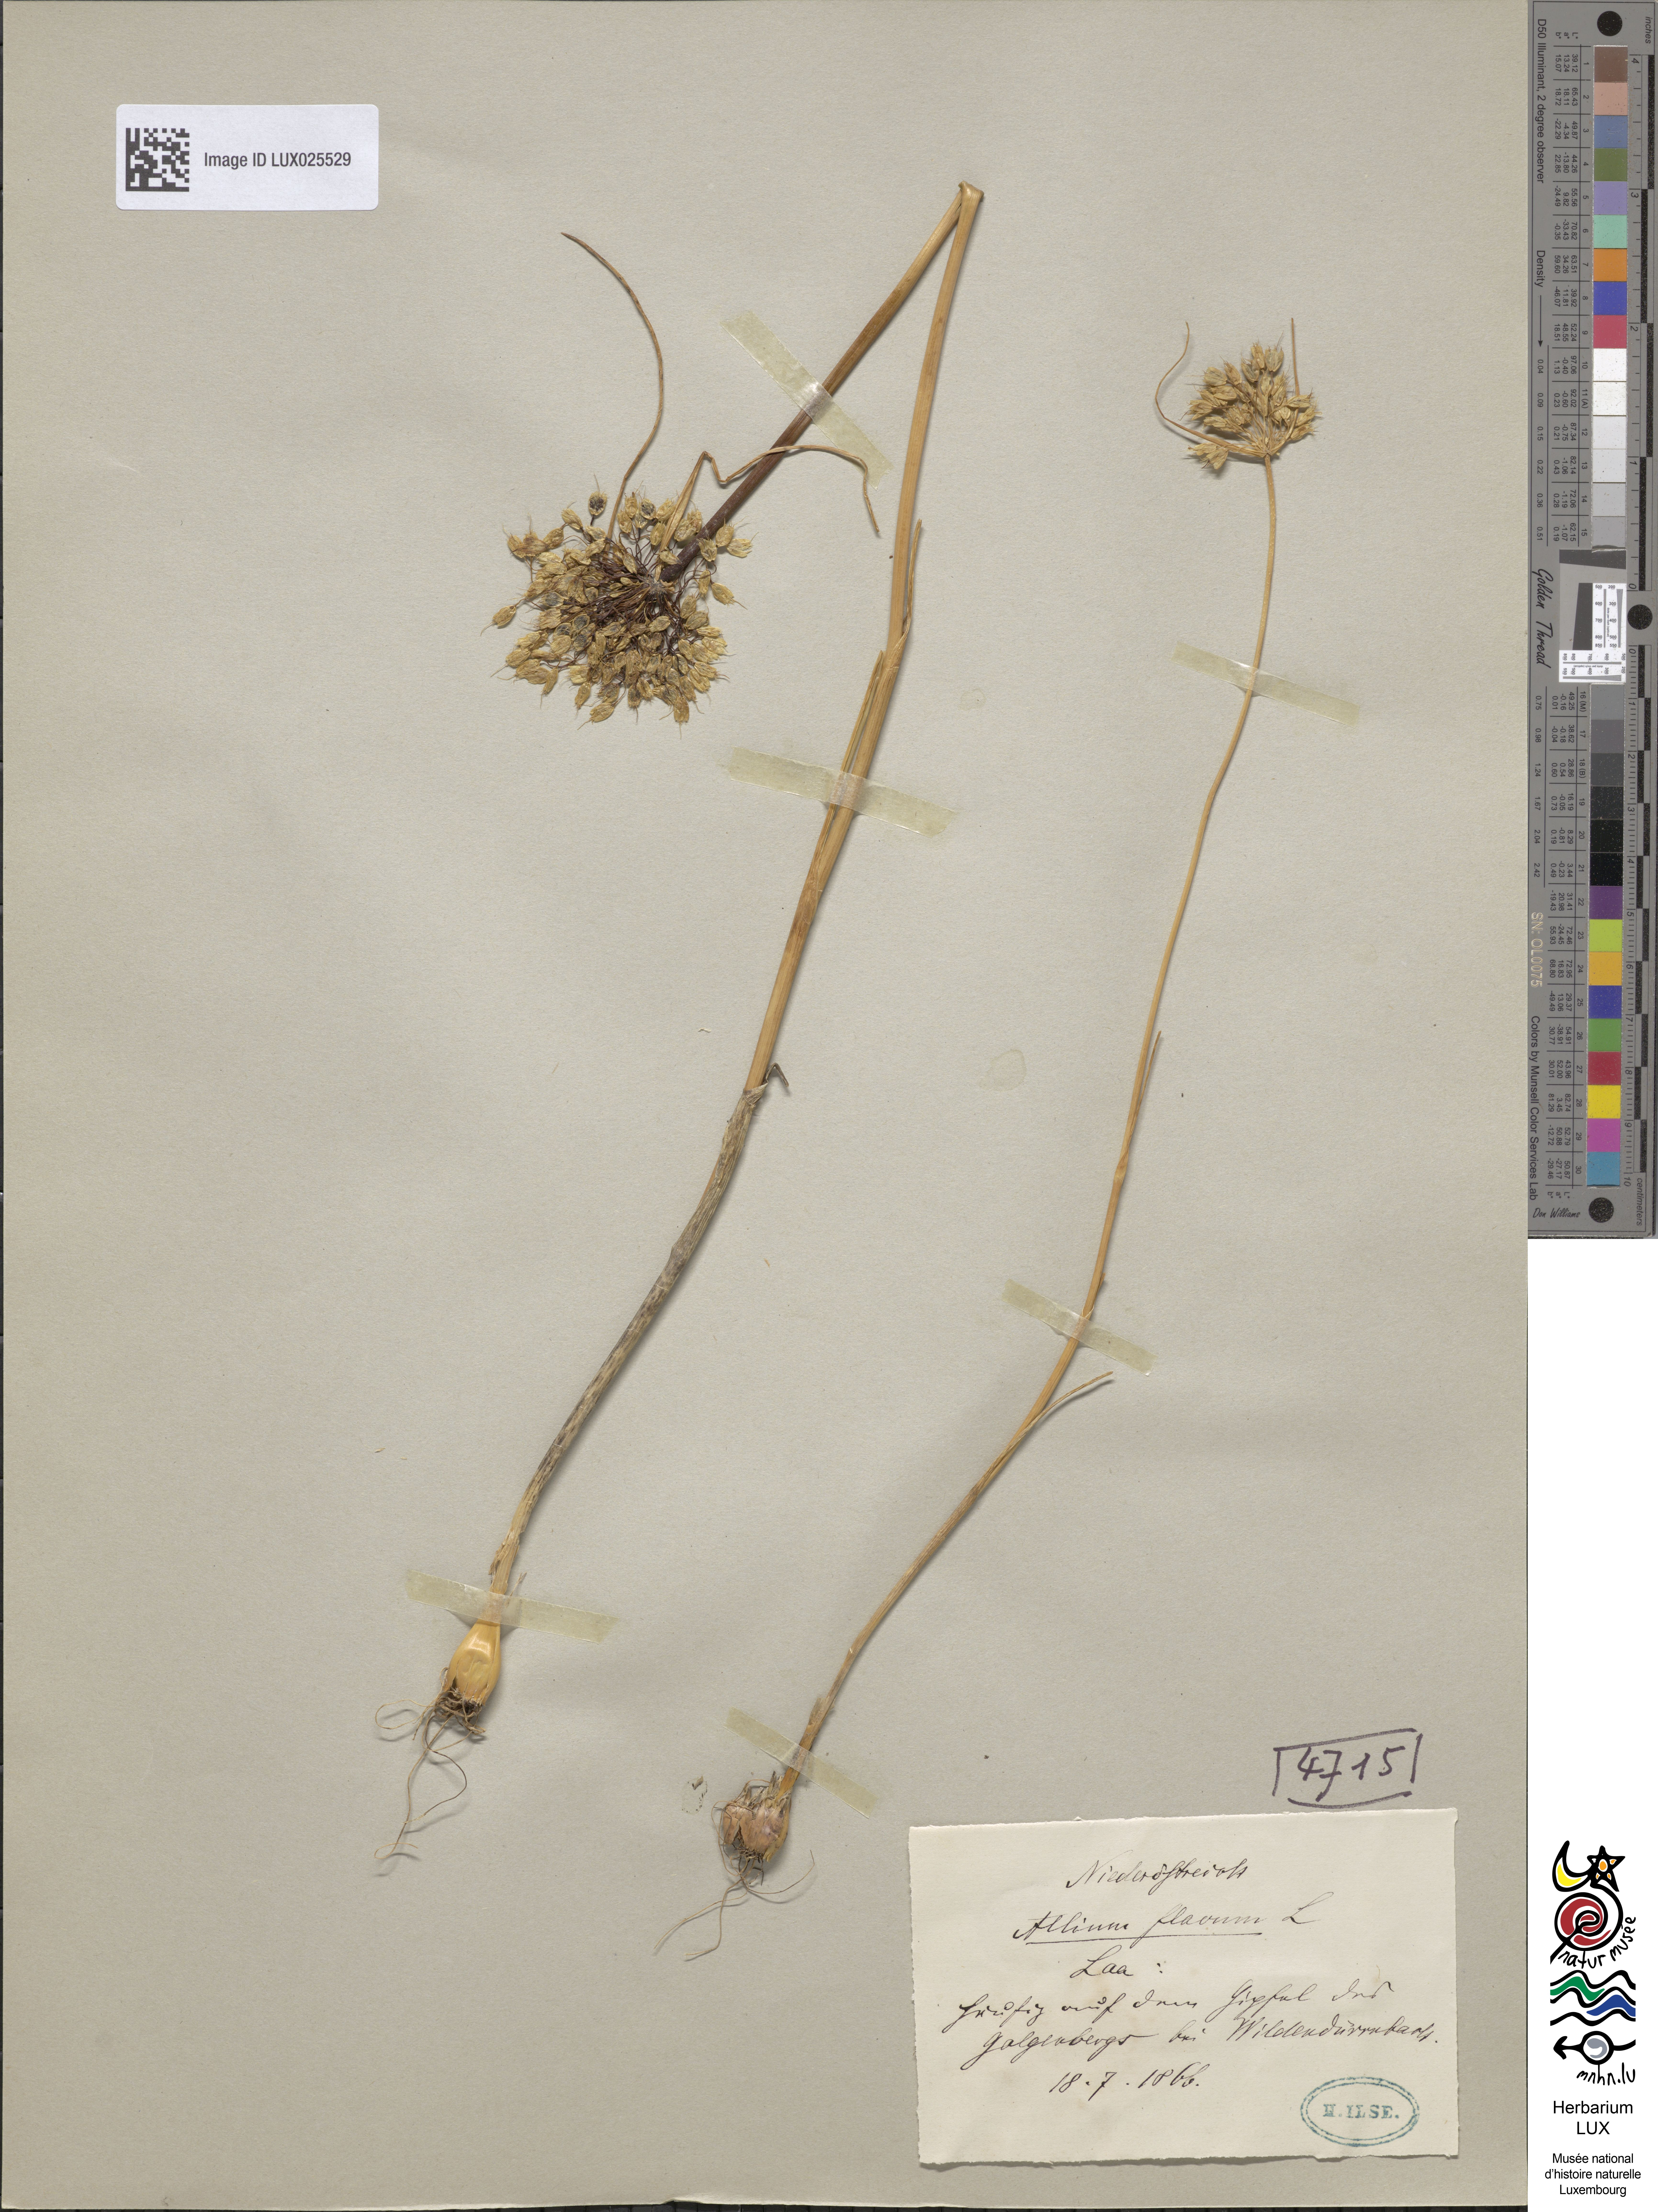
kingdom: Plantae
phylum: Tracheophyta
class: Liliopsida
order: Asparagales
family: Amaryllidaceae
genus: Allium
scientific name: Allium flavum
